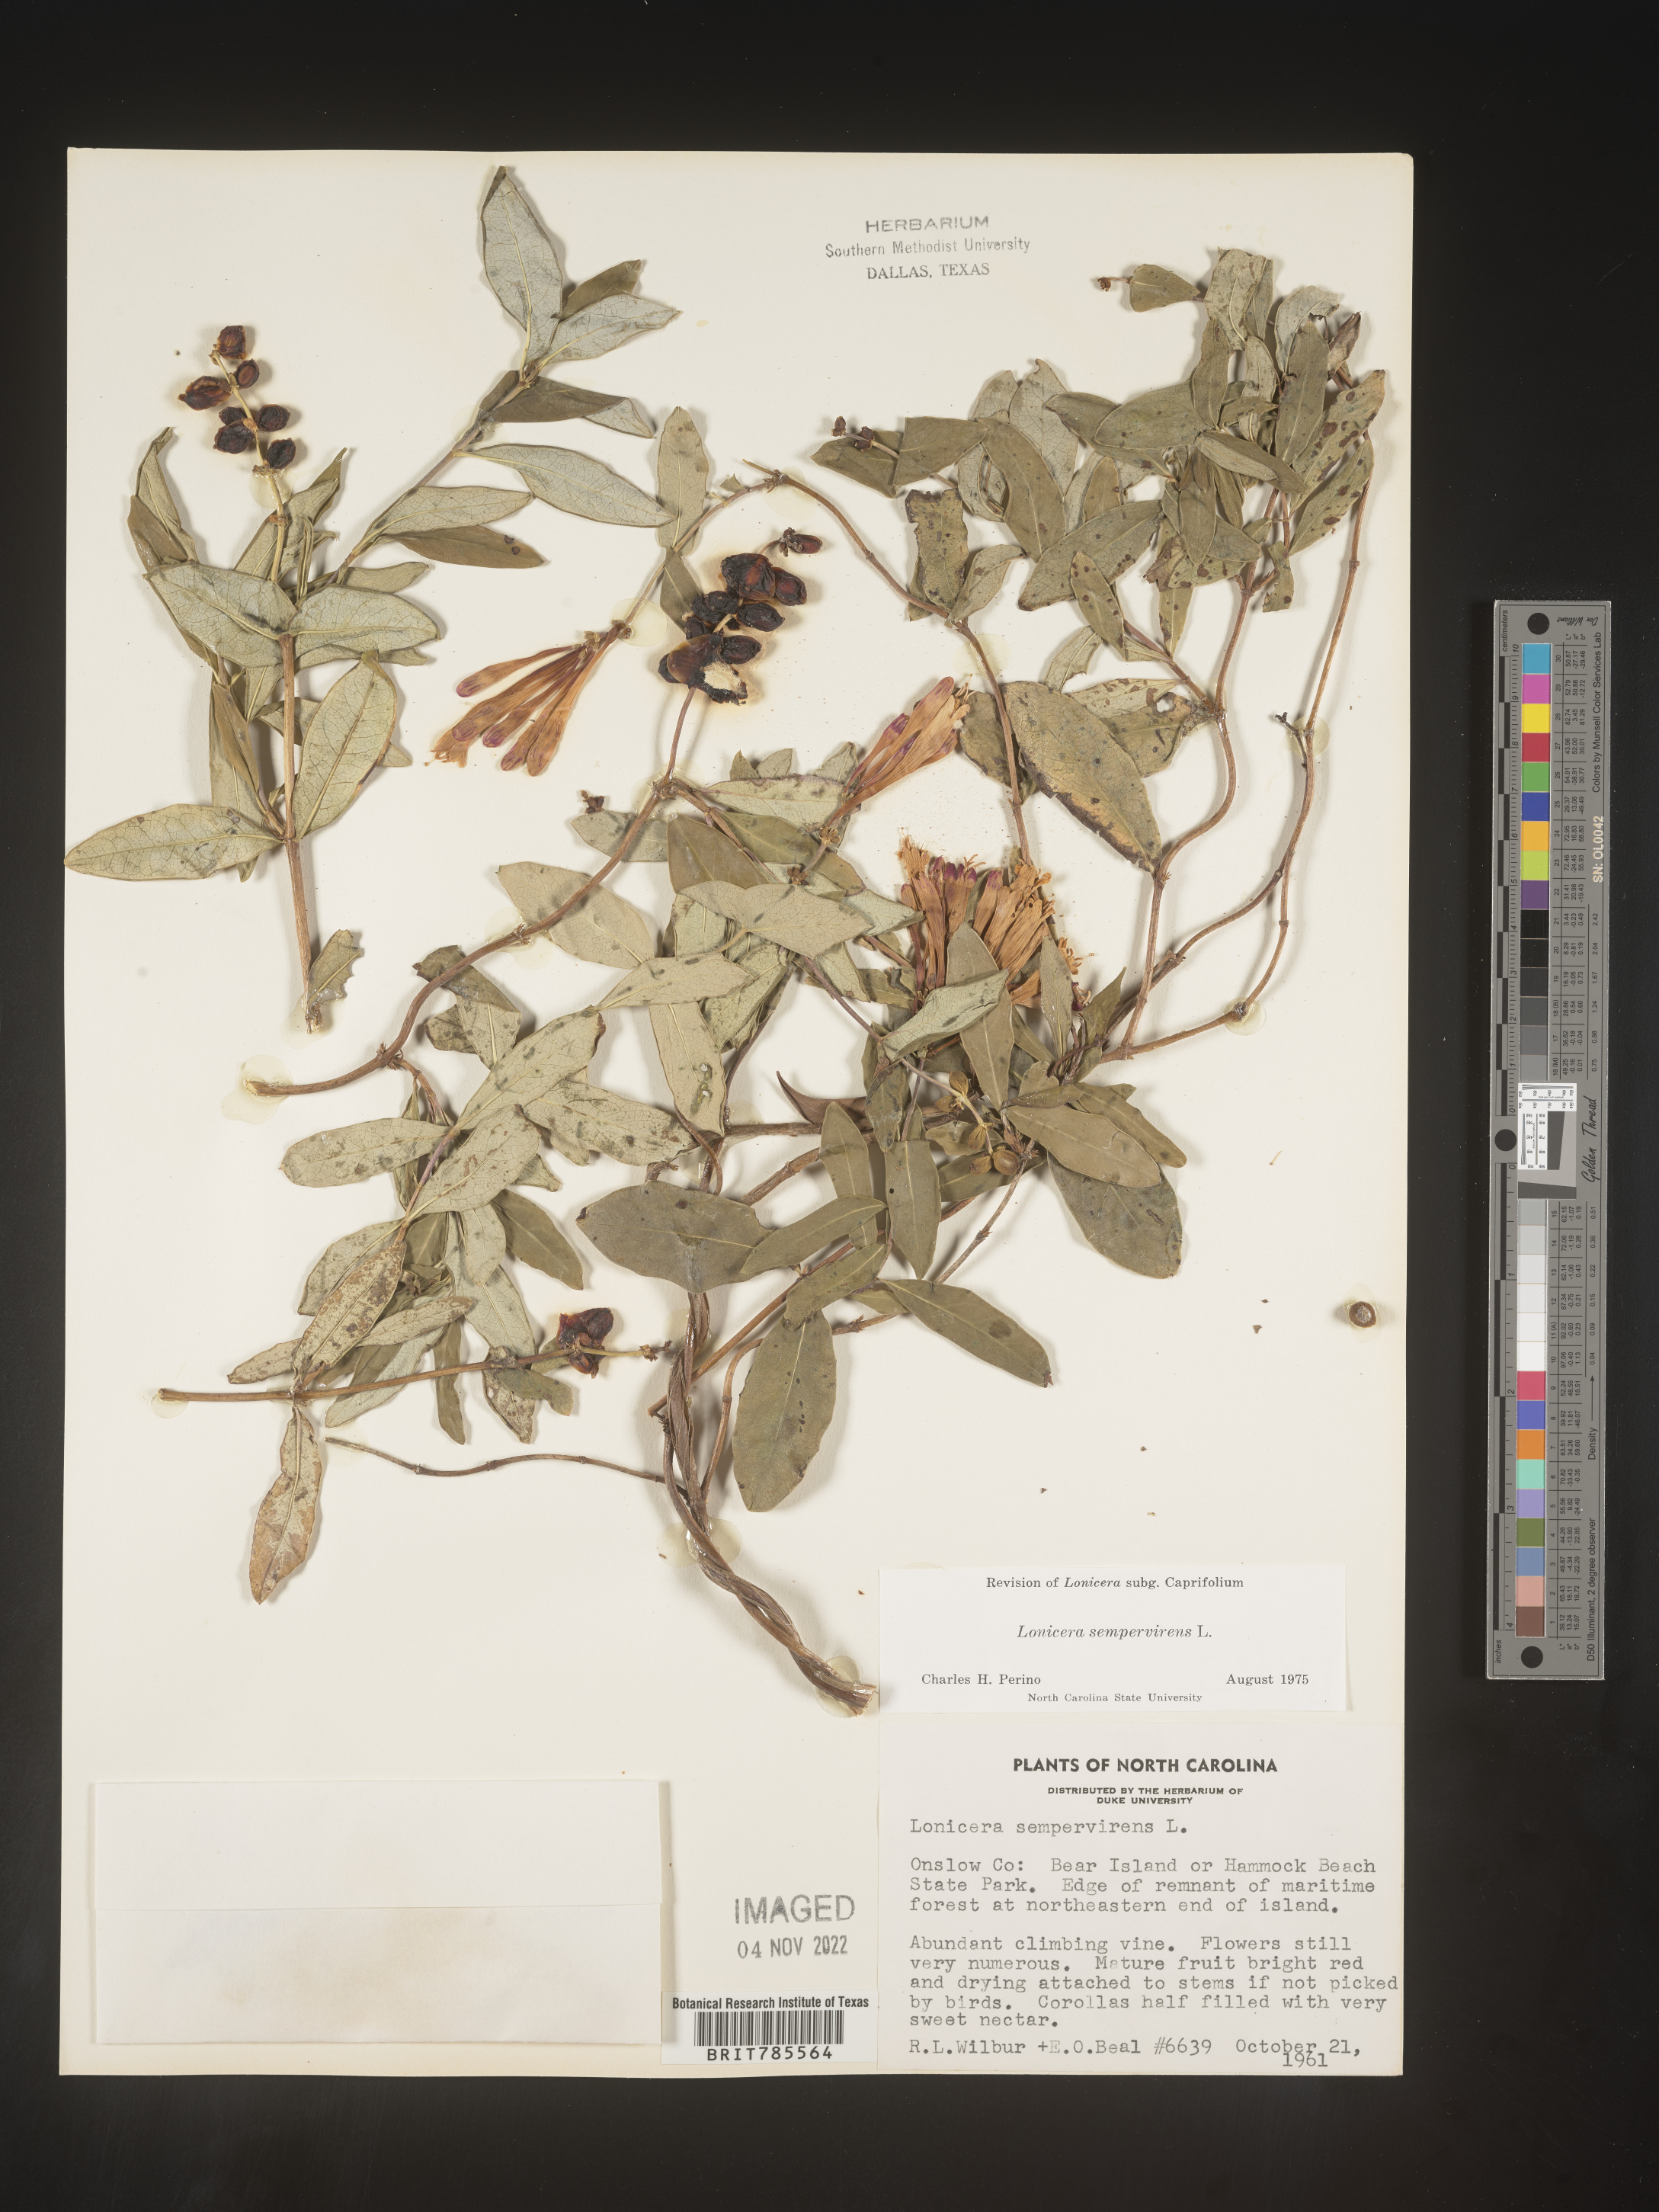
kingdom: Plantae
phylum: Tracheophyta
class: Magnoliopsida
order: Dipsacales
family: Caprifoliaceae
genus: Lonicera
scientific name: Lonicera sempervirens
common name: Coral honeysuckle
